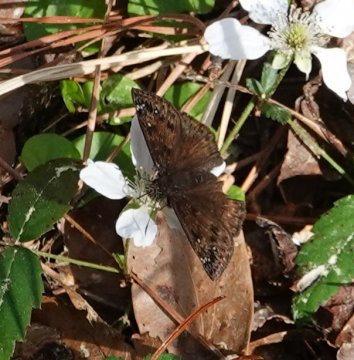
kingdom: Animalia
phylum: Arthropoda
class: Insecta
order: Lepidoptera
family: Hesperiidae
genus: Gesta
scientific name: Gesta
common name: Horace's Duskywing
